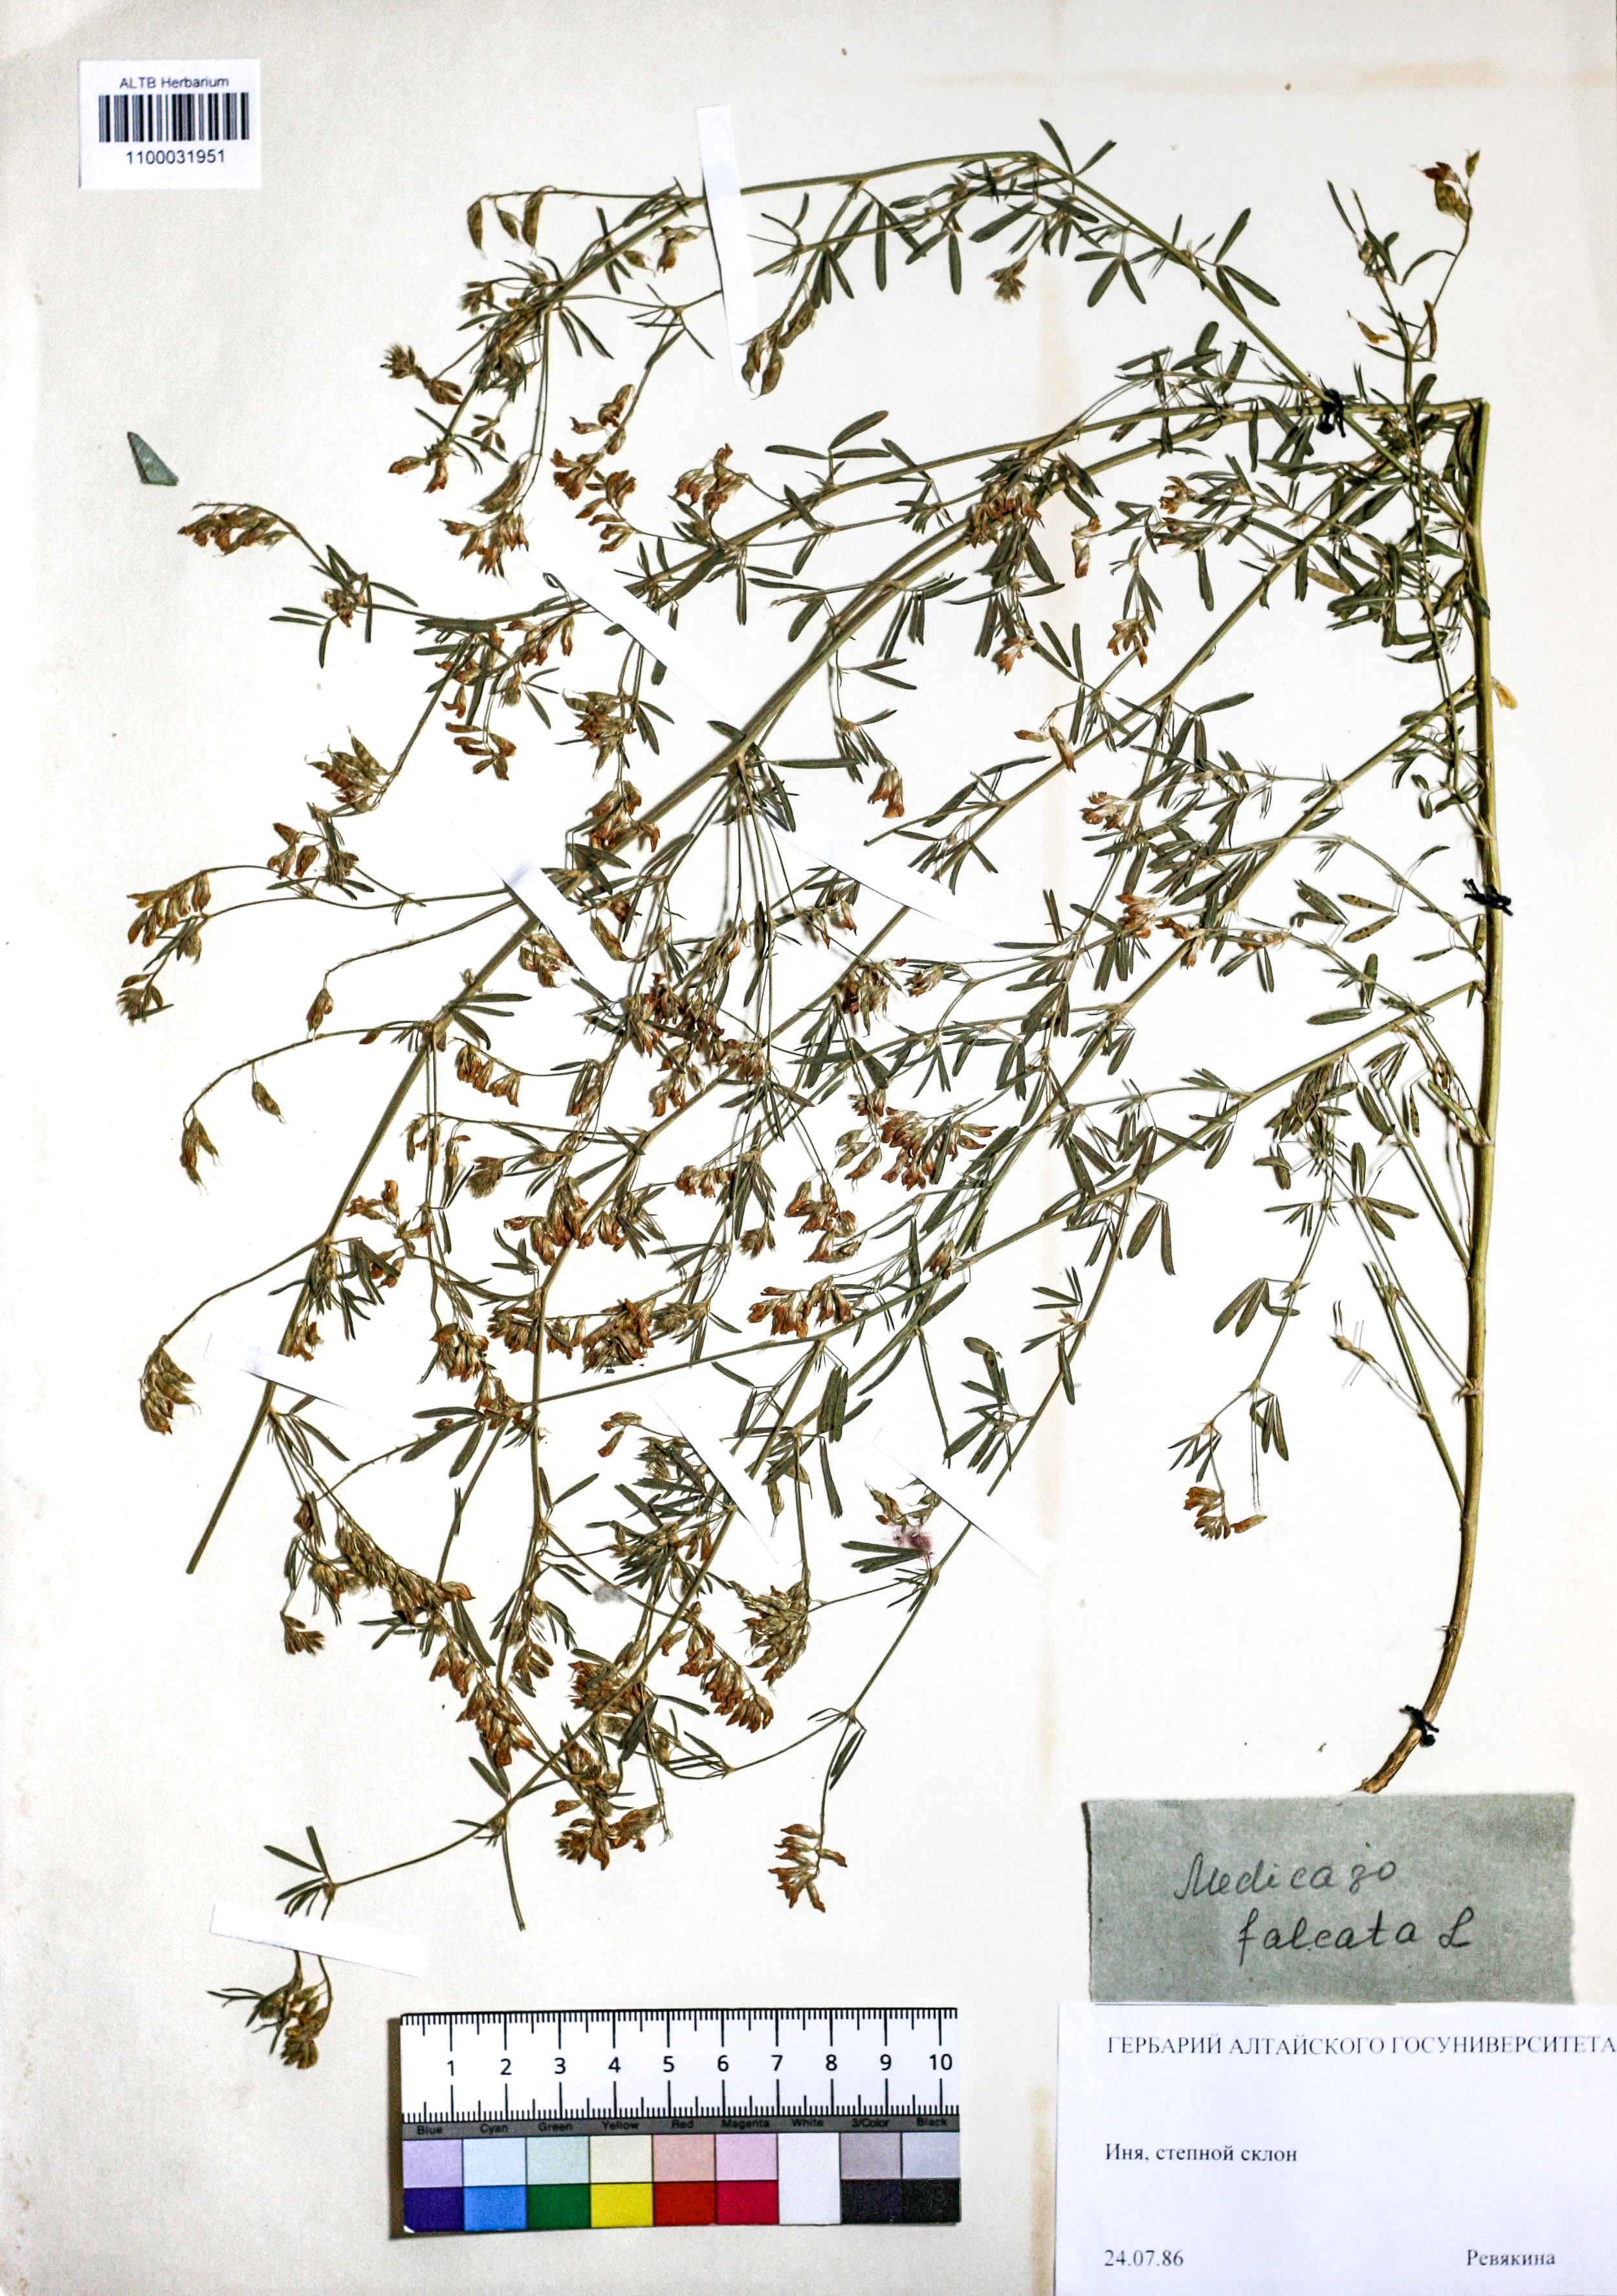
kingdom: Plantae
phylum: Tracheophyta
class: Magnoliopsida
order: Fabales
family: Fabaceae
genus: Medicago
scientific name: Medicago falcata
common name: Sickle medick
